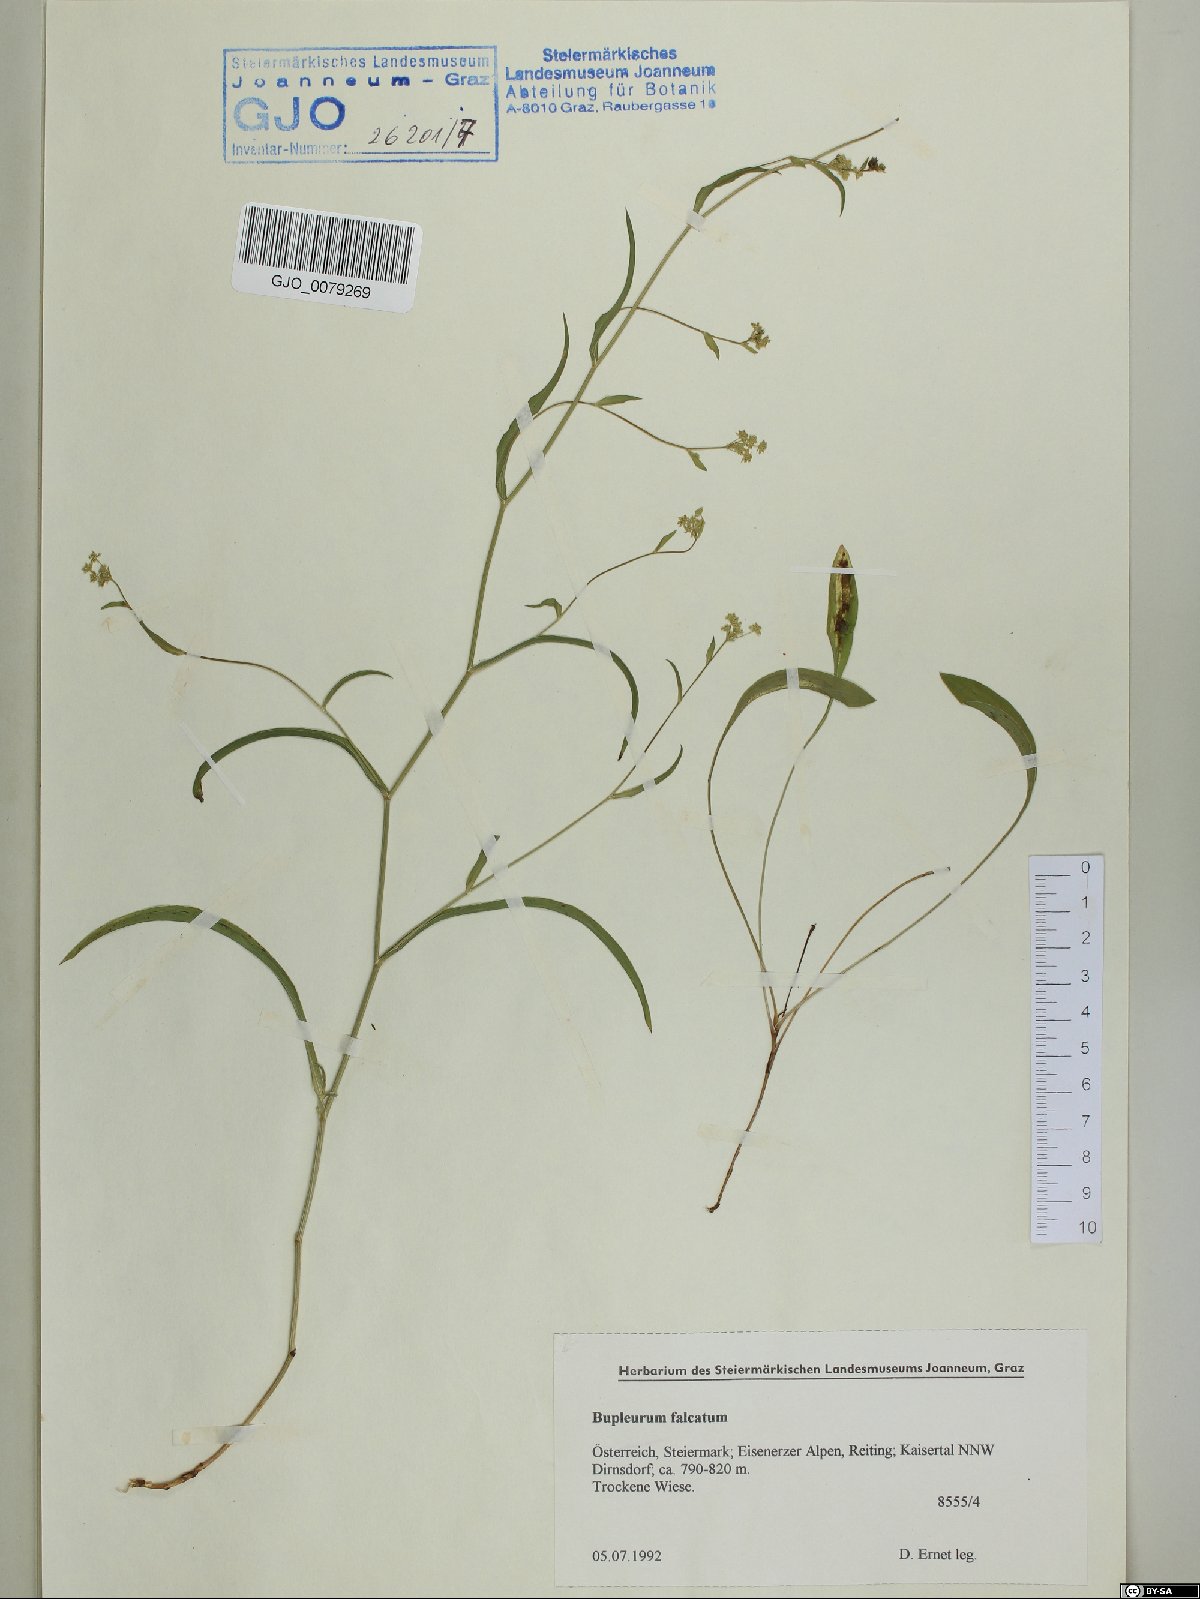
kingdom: Plantae
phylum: Tracheophyta
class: Magnoliopsida
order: Apiales
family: Apiaceae
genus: Bupleurum
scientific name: Bupleurum falcatum
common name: Sickle-leaved hare's-ear
